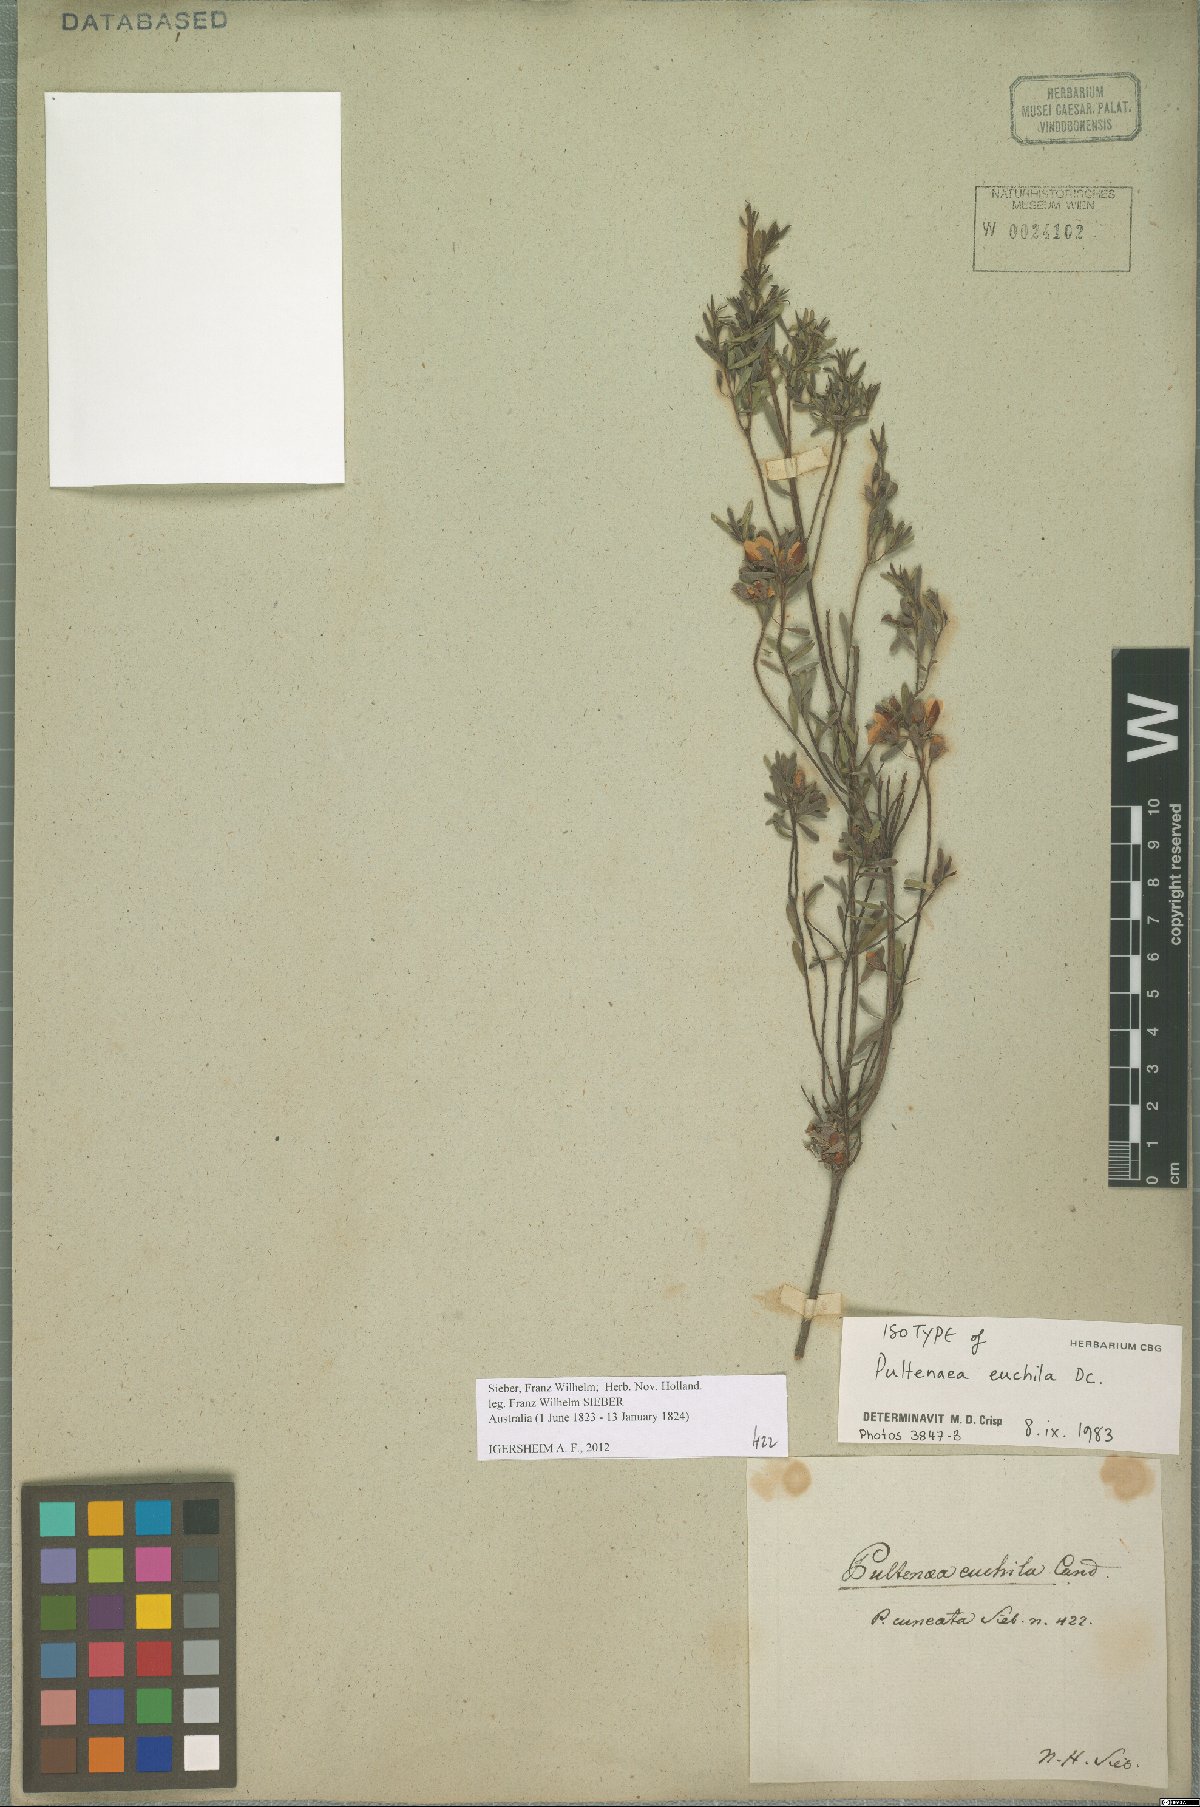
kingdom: Plantae
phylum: Tracheophyta
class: Magnoliopsida
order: Fabales
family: Fabaceae
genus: Pultenaea
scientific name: Pultenaea euchila
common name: Large-flower bush-pea
